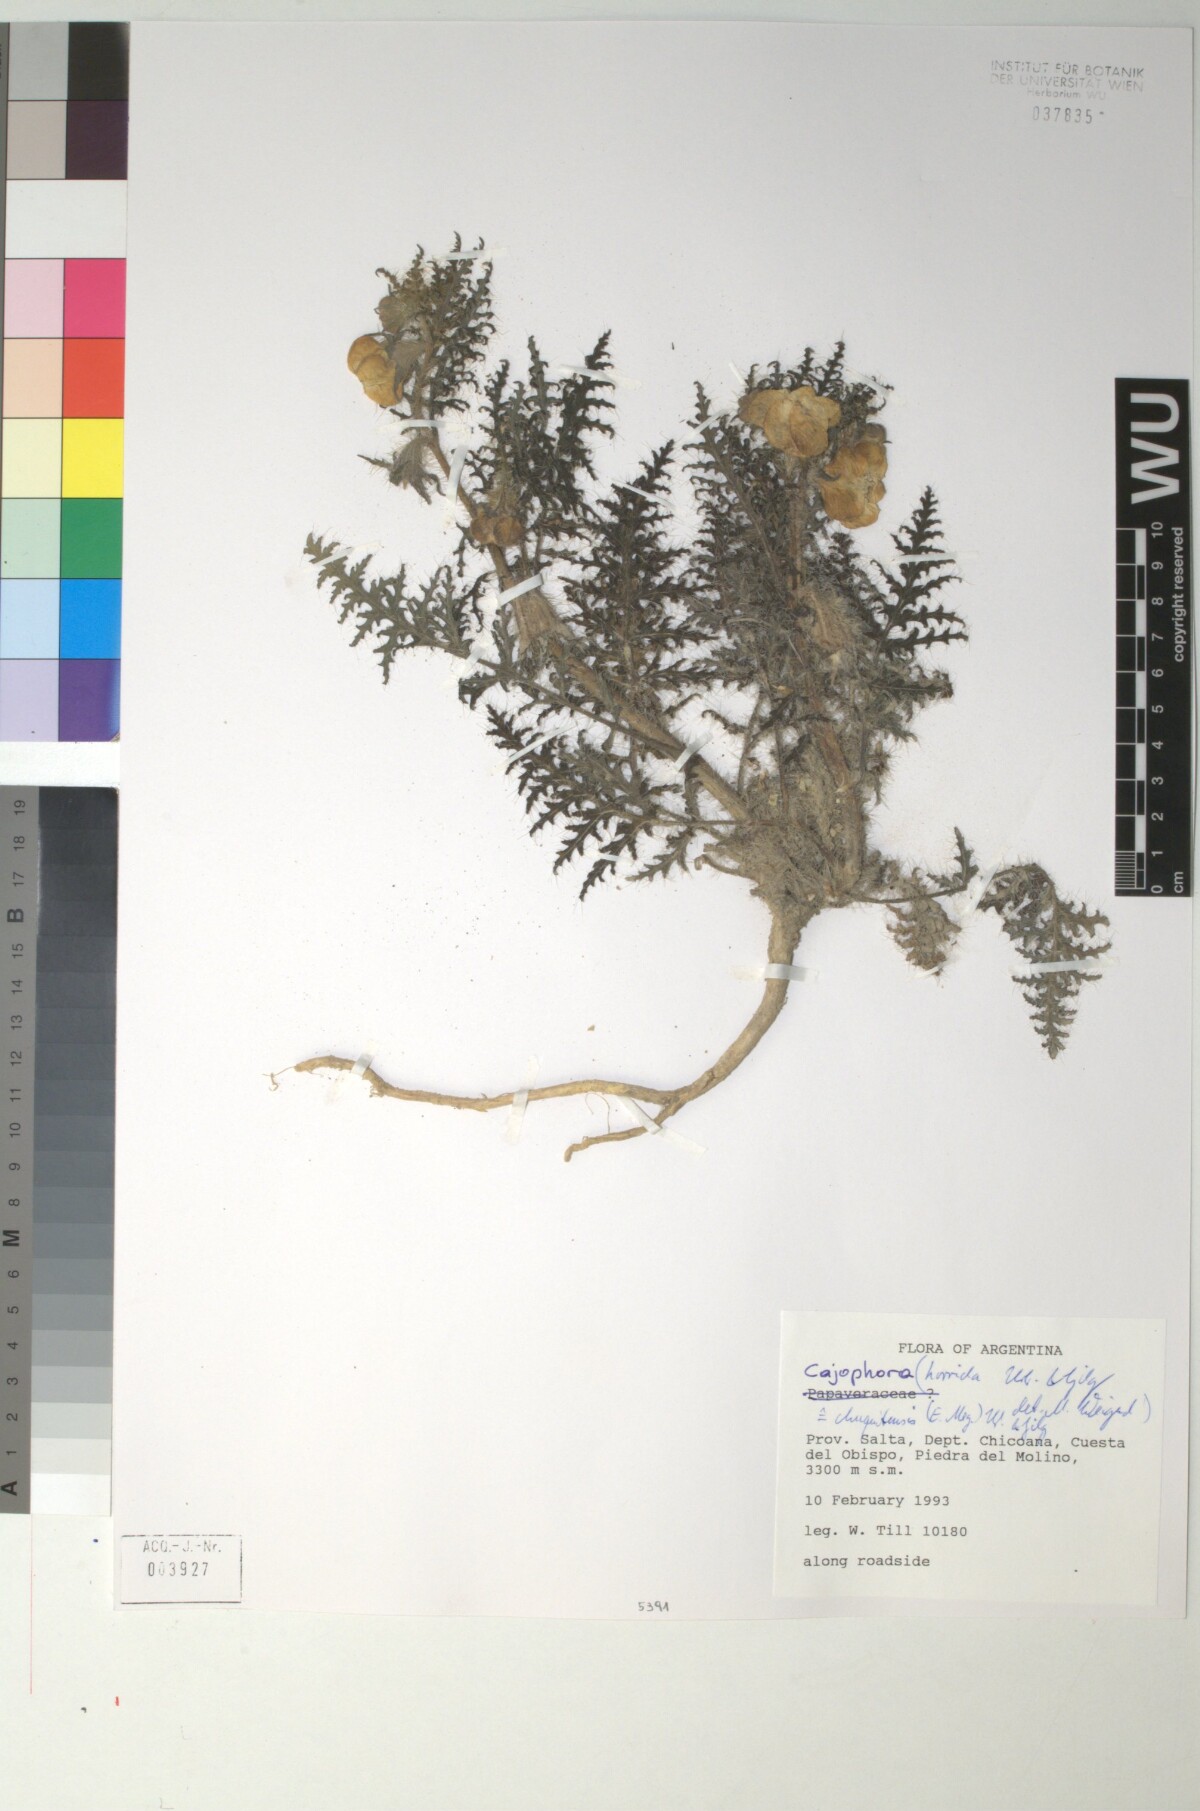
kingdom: Plantae
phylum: Tracheophyta
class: Magnoliopsida
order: Cornales
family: Loasaceae
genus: Caiophora
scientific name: Caiophora chuquitensis
